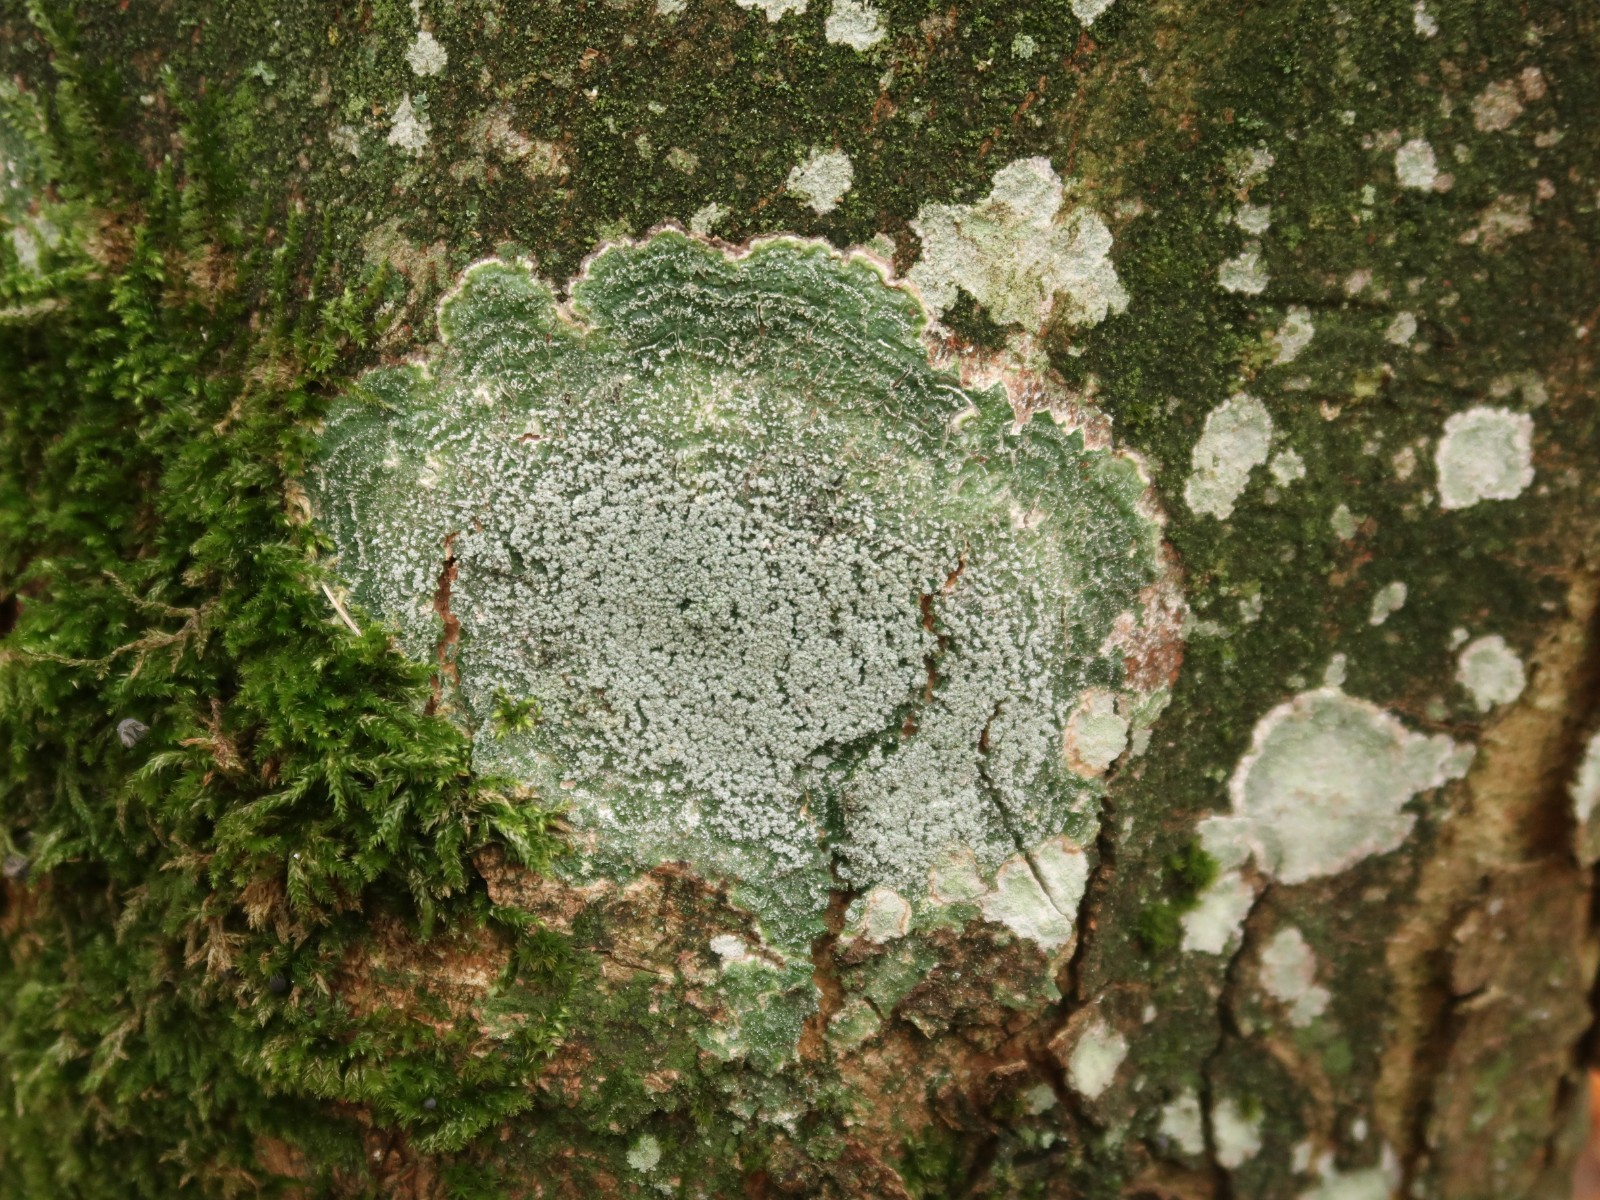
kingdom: Fungi
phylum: Ascomycota
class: Lecanoromycetes
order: Pertusariales
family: Pertusariaceae
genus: Lepra
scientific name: Lepra albescens
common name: hvidmelet prikvortelav
